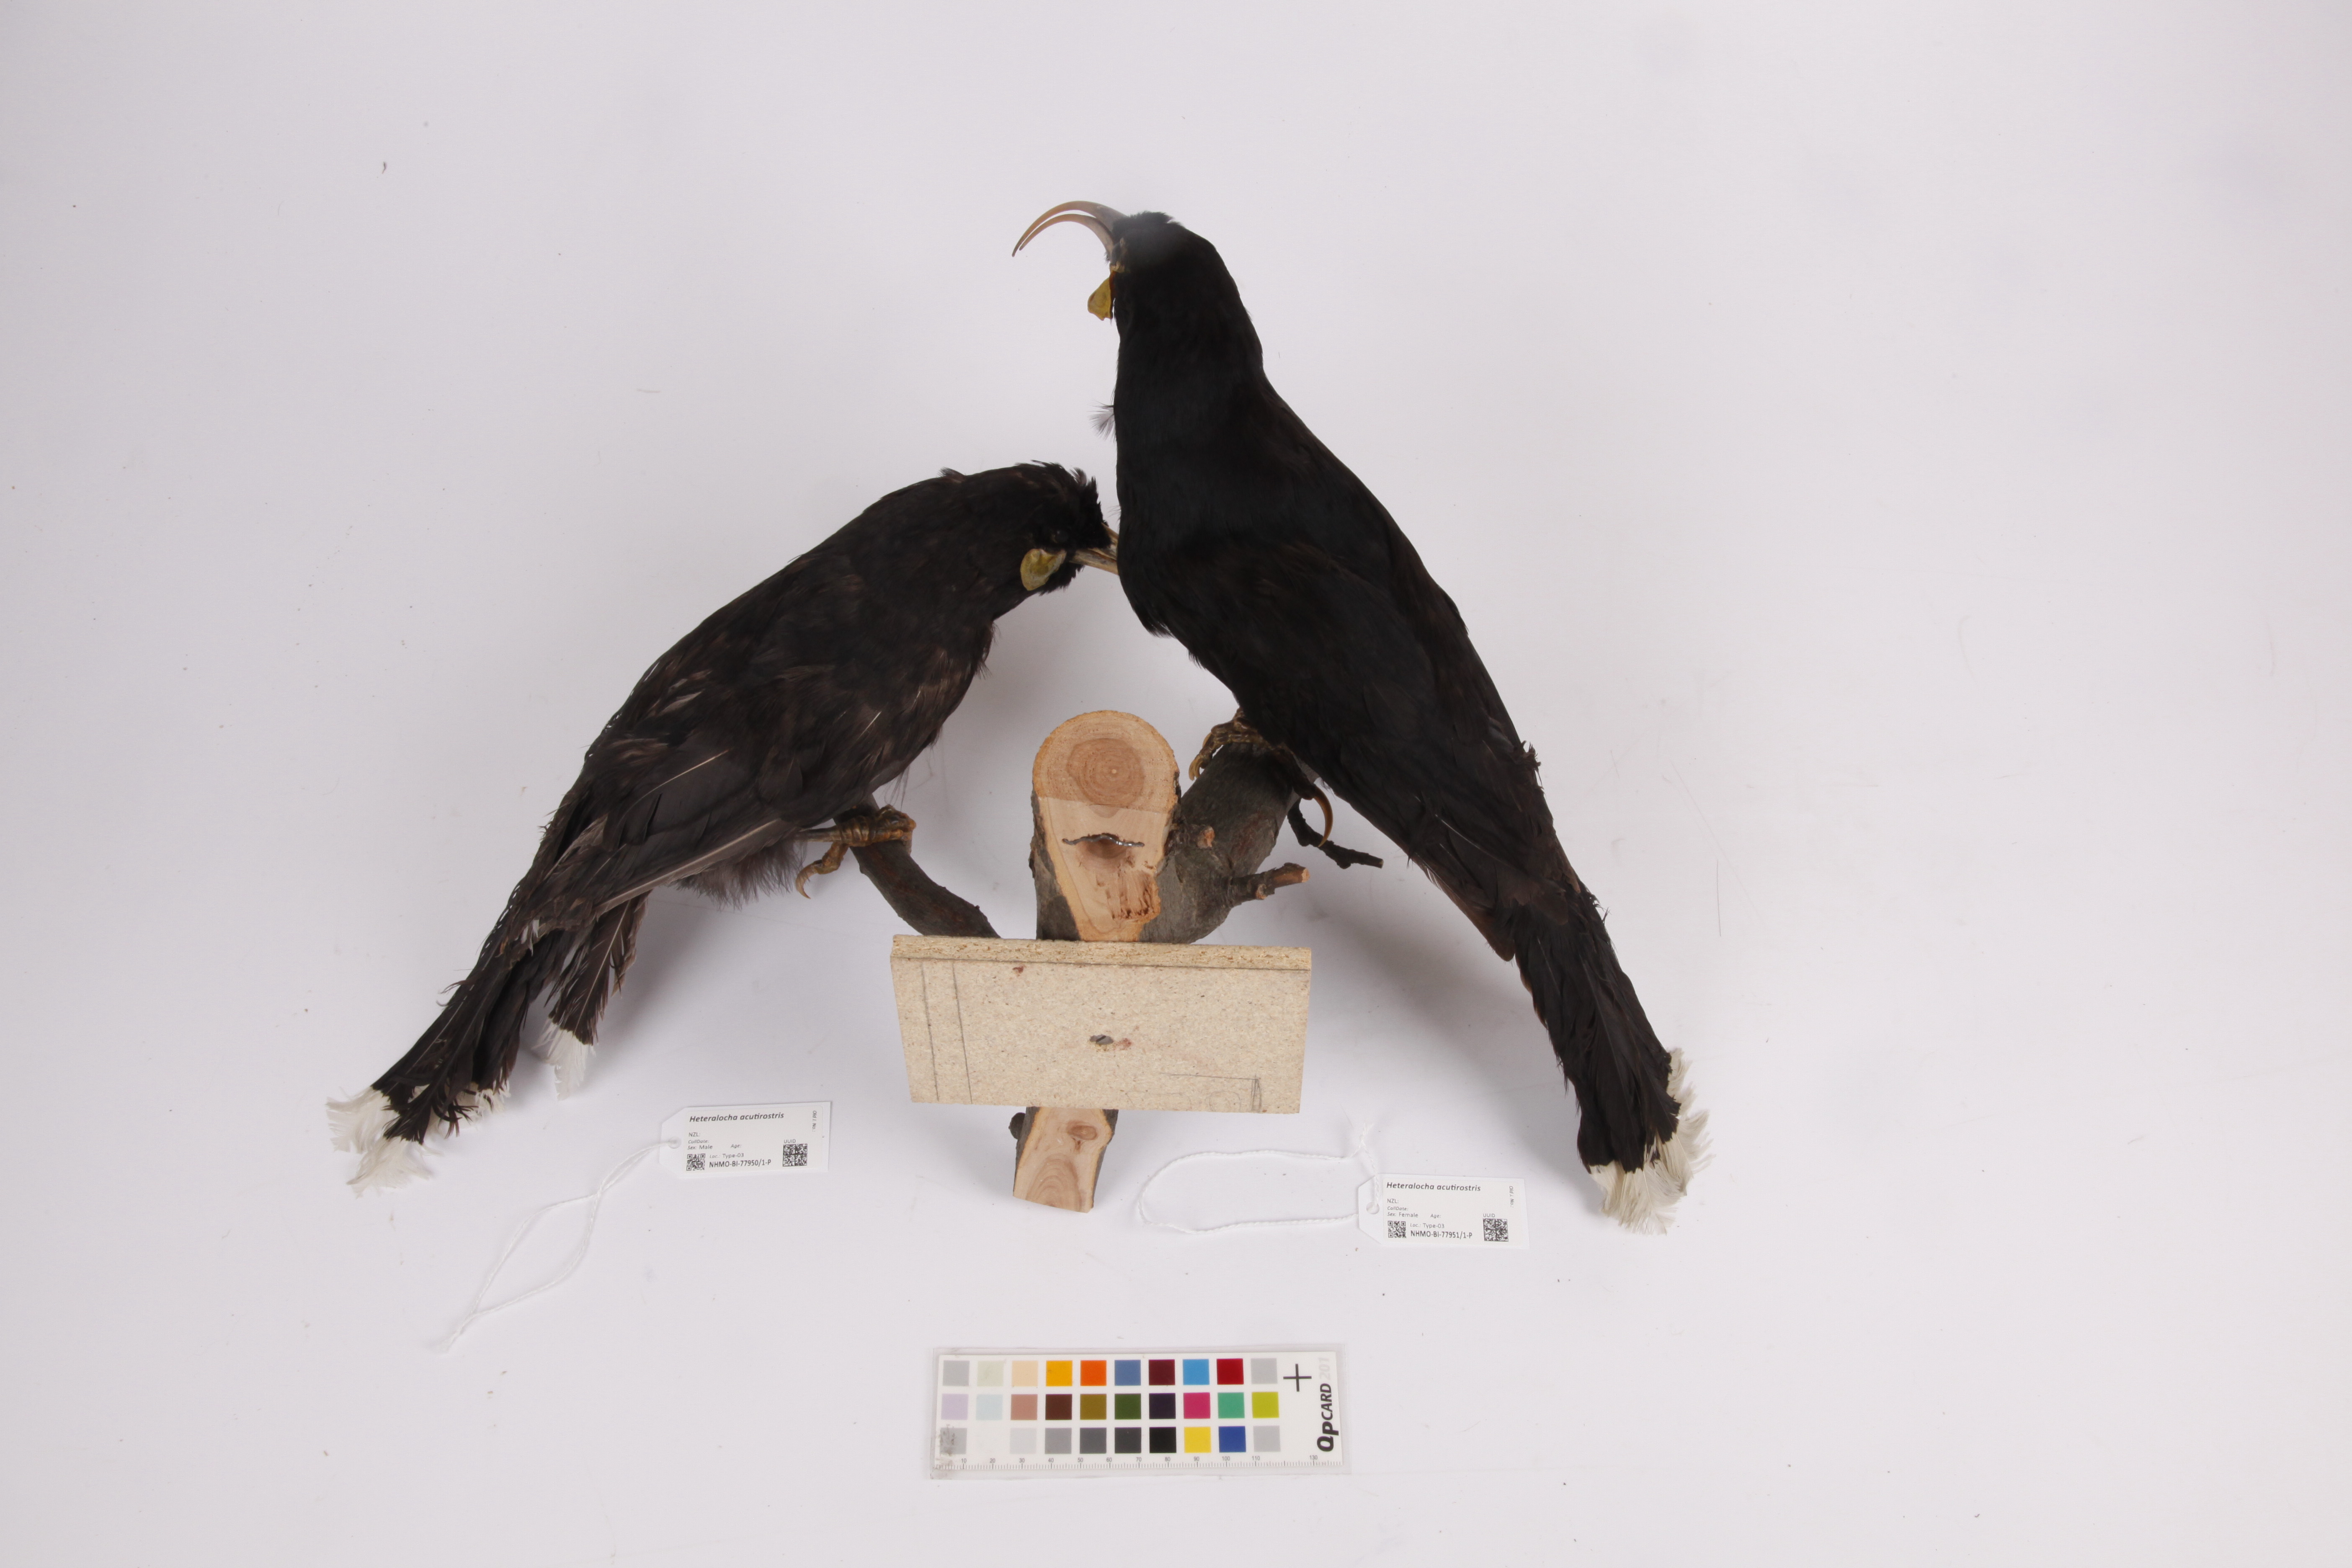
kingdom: Animalia
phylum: Chordata
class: Aves
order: Passeriformes
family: Callaeatidae
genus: Heteralocha
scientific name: Heteralocha acutirostris
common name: Huia
